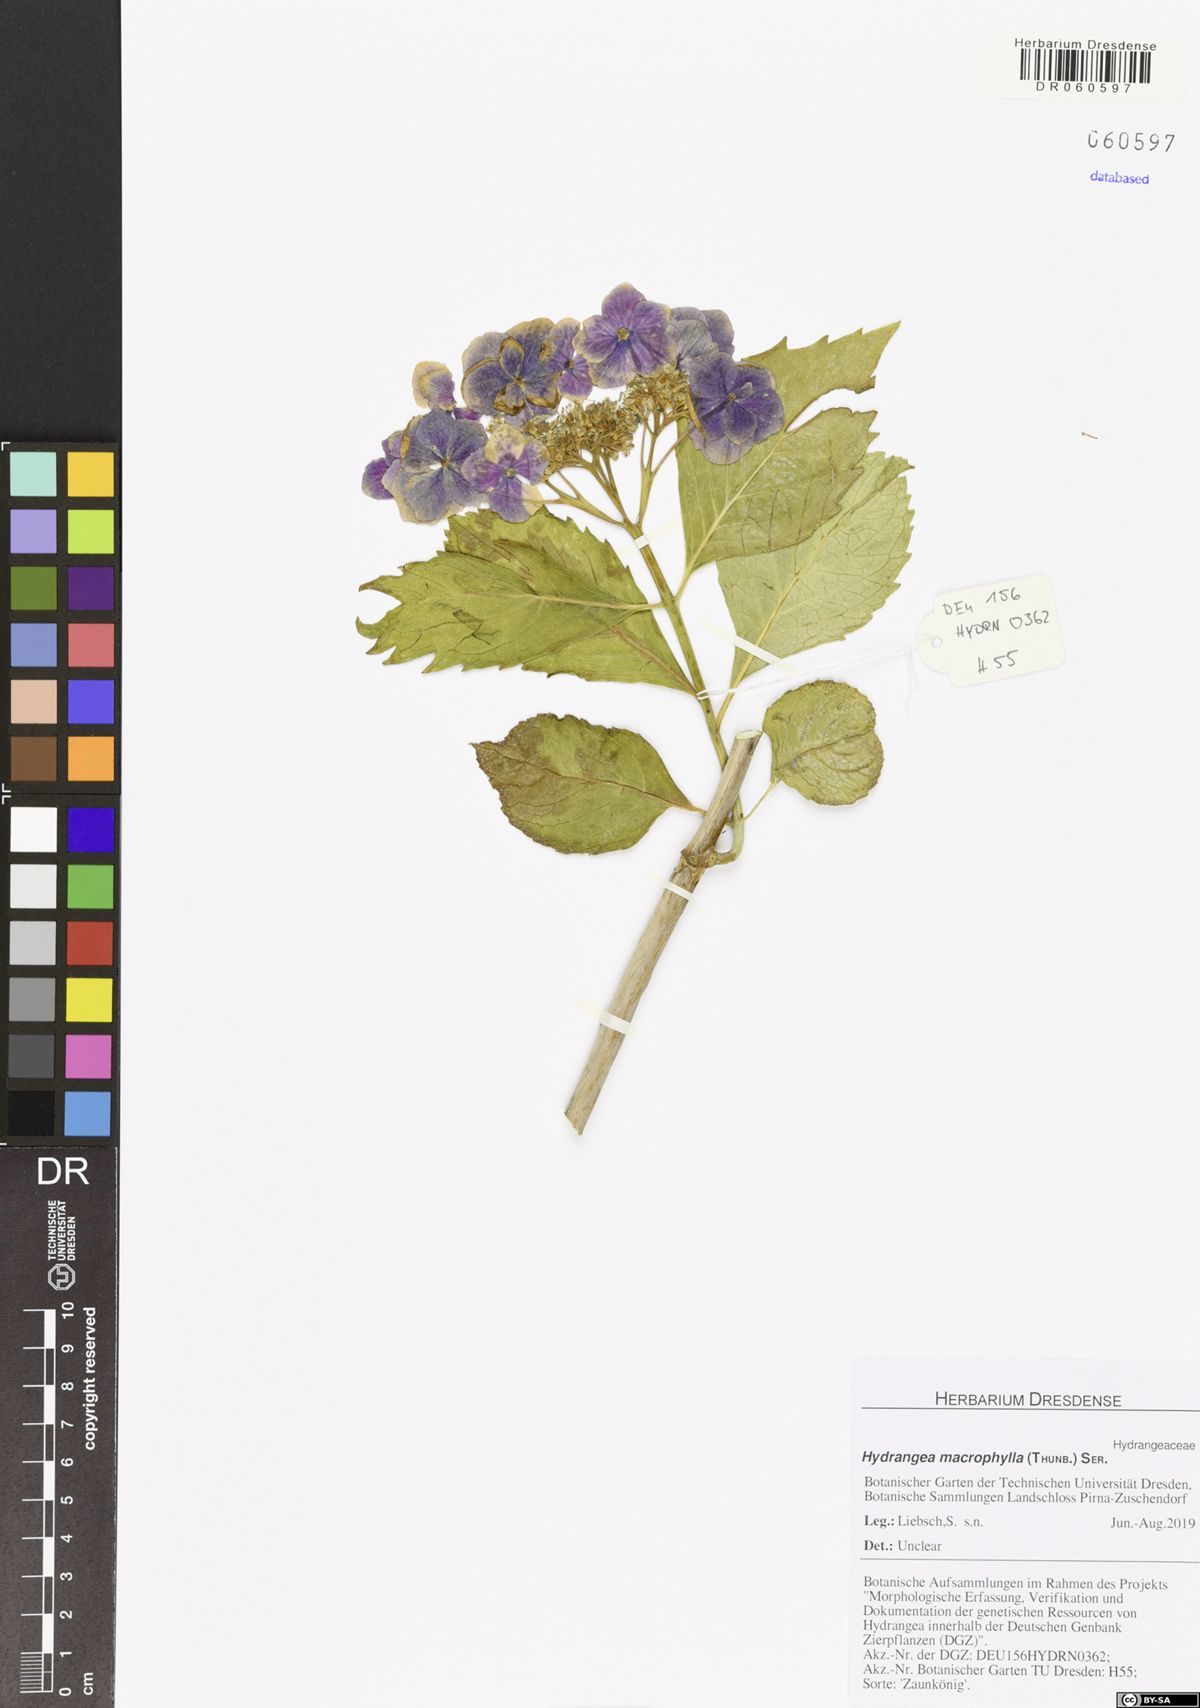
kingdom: Plantae
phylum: Tracheophyta
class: Magnoliopsida
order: Cornales
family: Hydrangeaceae
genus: Hydrangea
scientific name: Hydrangea macrophylla
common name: Hydrangea
